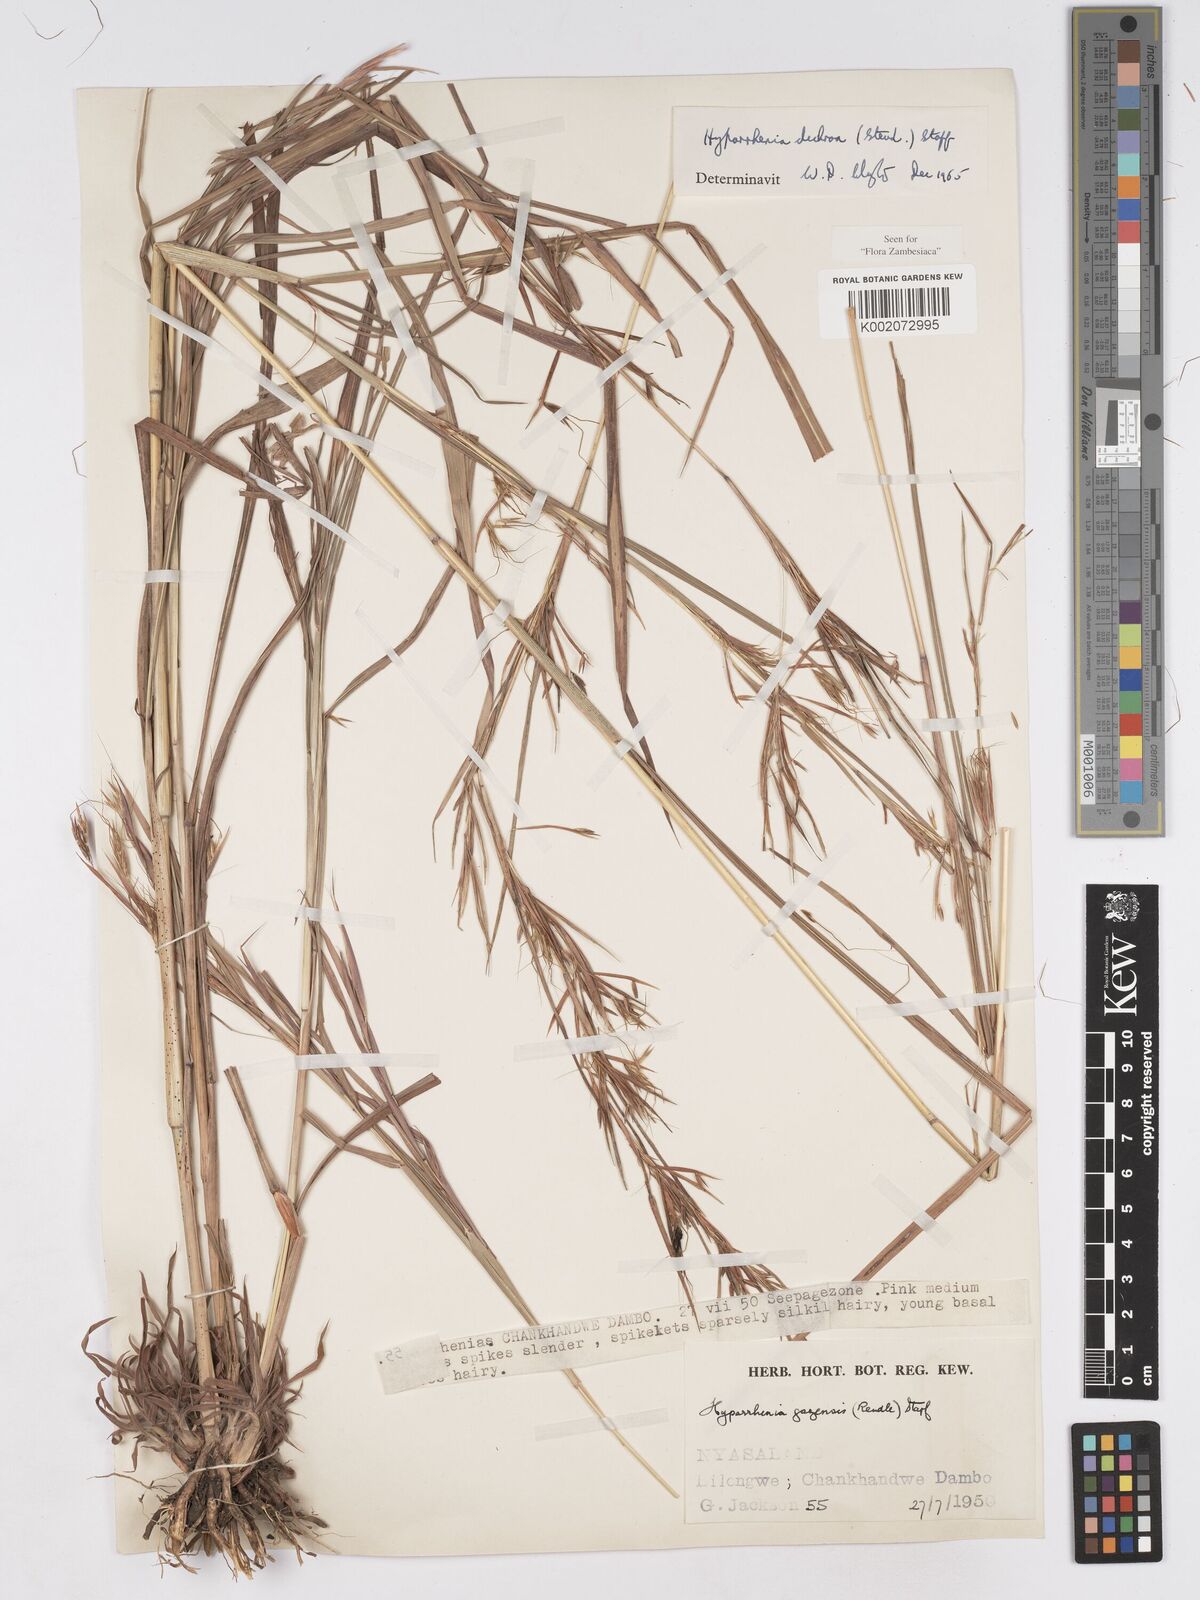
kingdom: Plantae
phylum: Tracheophyta
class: Liliopsida
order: Poales
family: Poaceae
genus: Hyparrhenia
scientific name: Hyparrhenia dichroa
